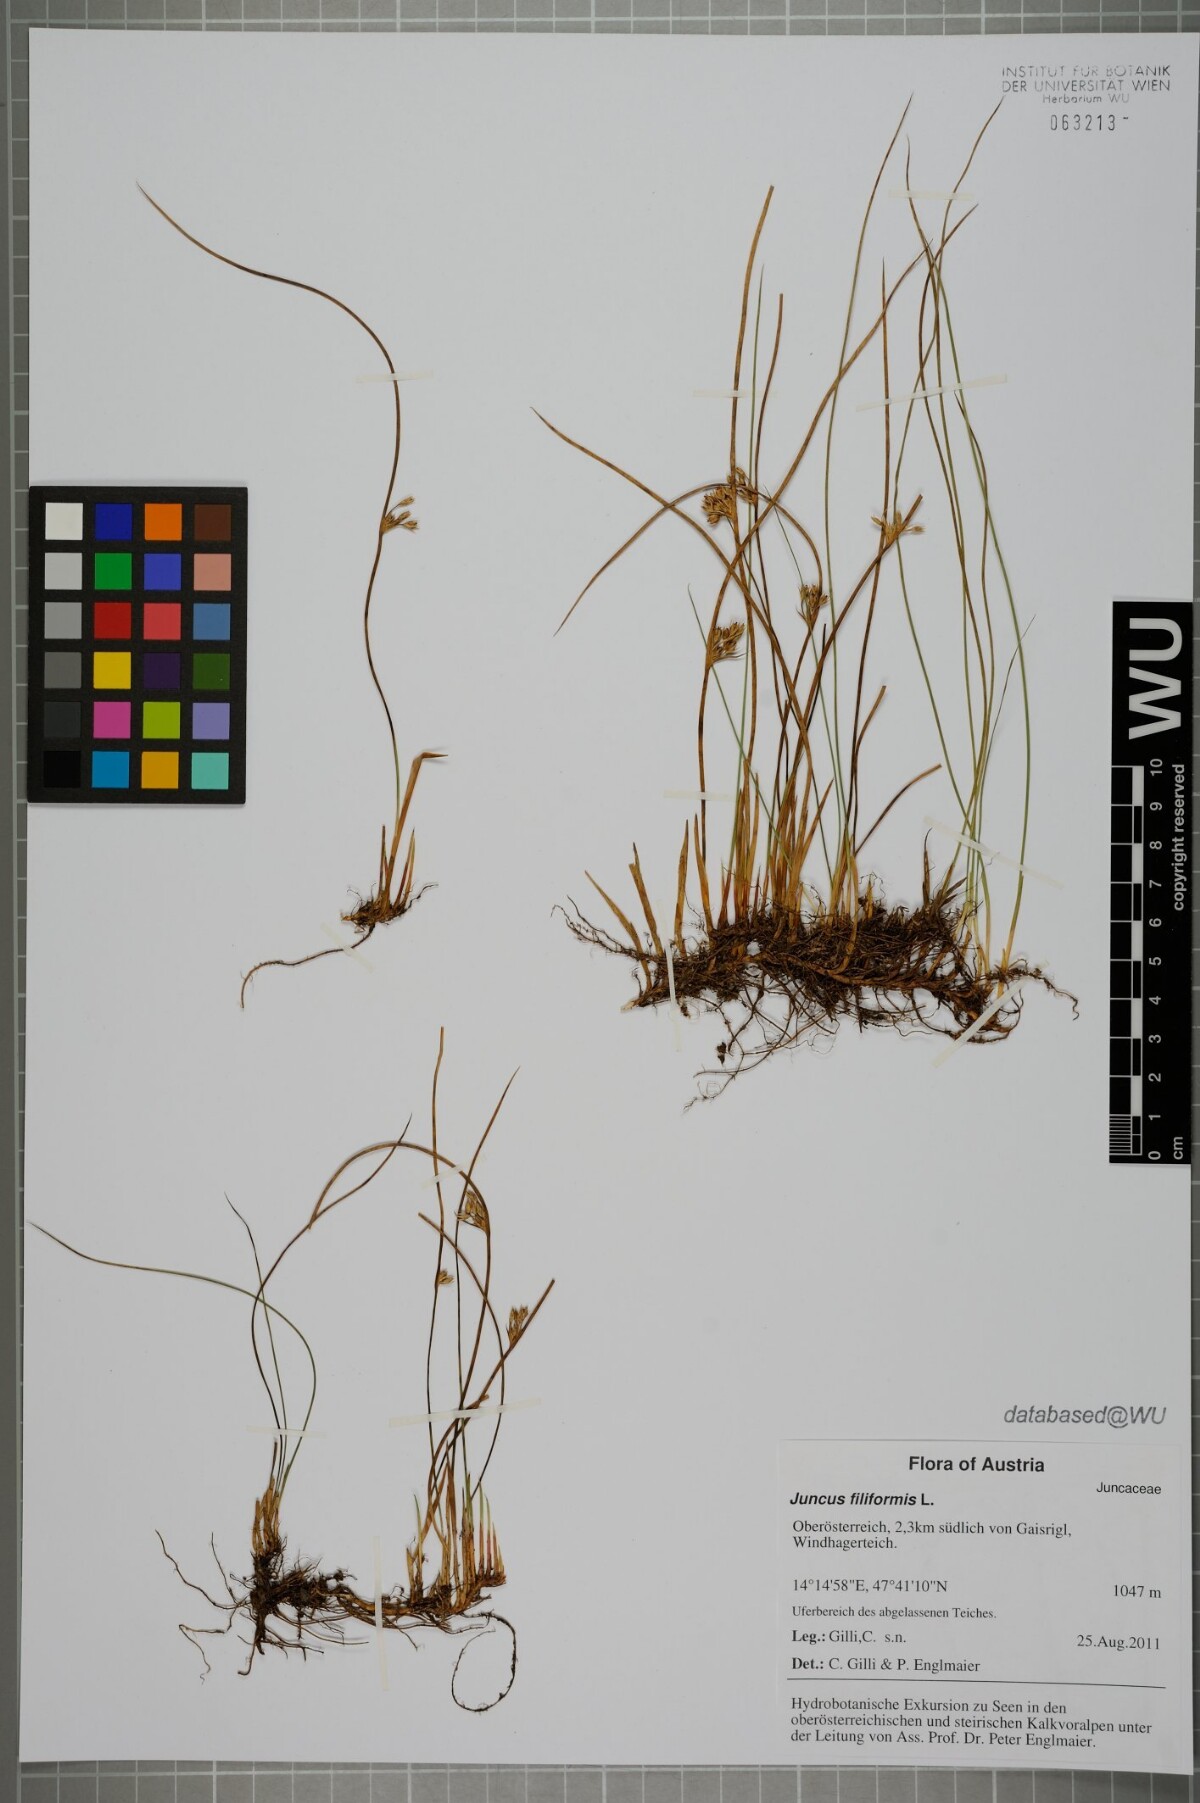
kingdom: Plantae
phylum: Tracheophyta
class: Liliopsida
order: Poales
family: Juncaceae
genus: Juncus
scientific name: Juncus filiformis
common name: Thread rush
